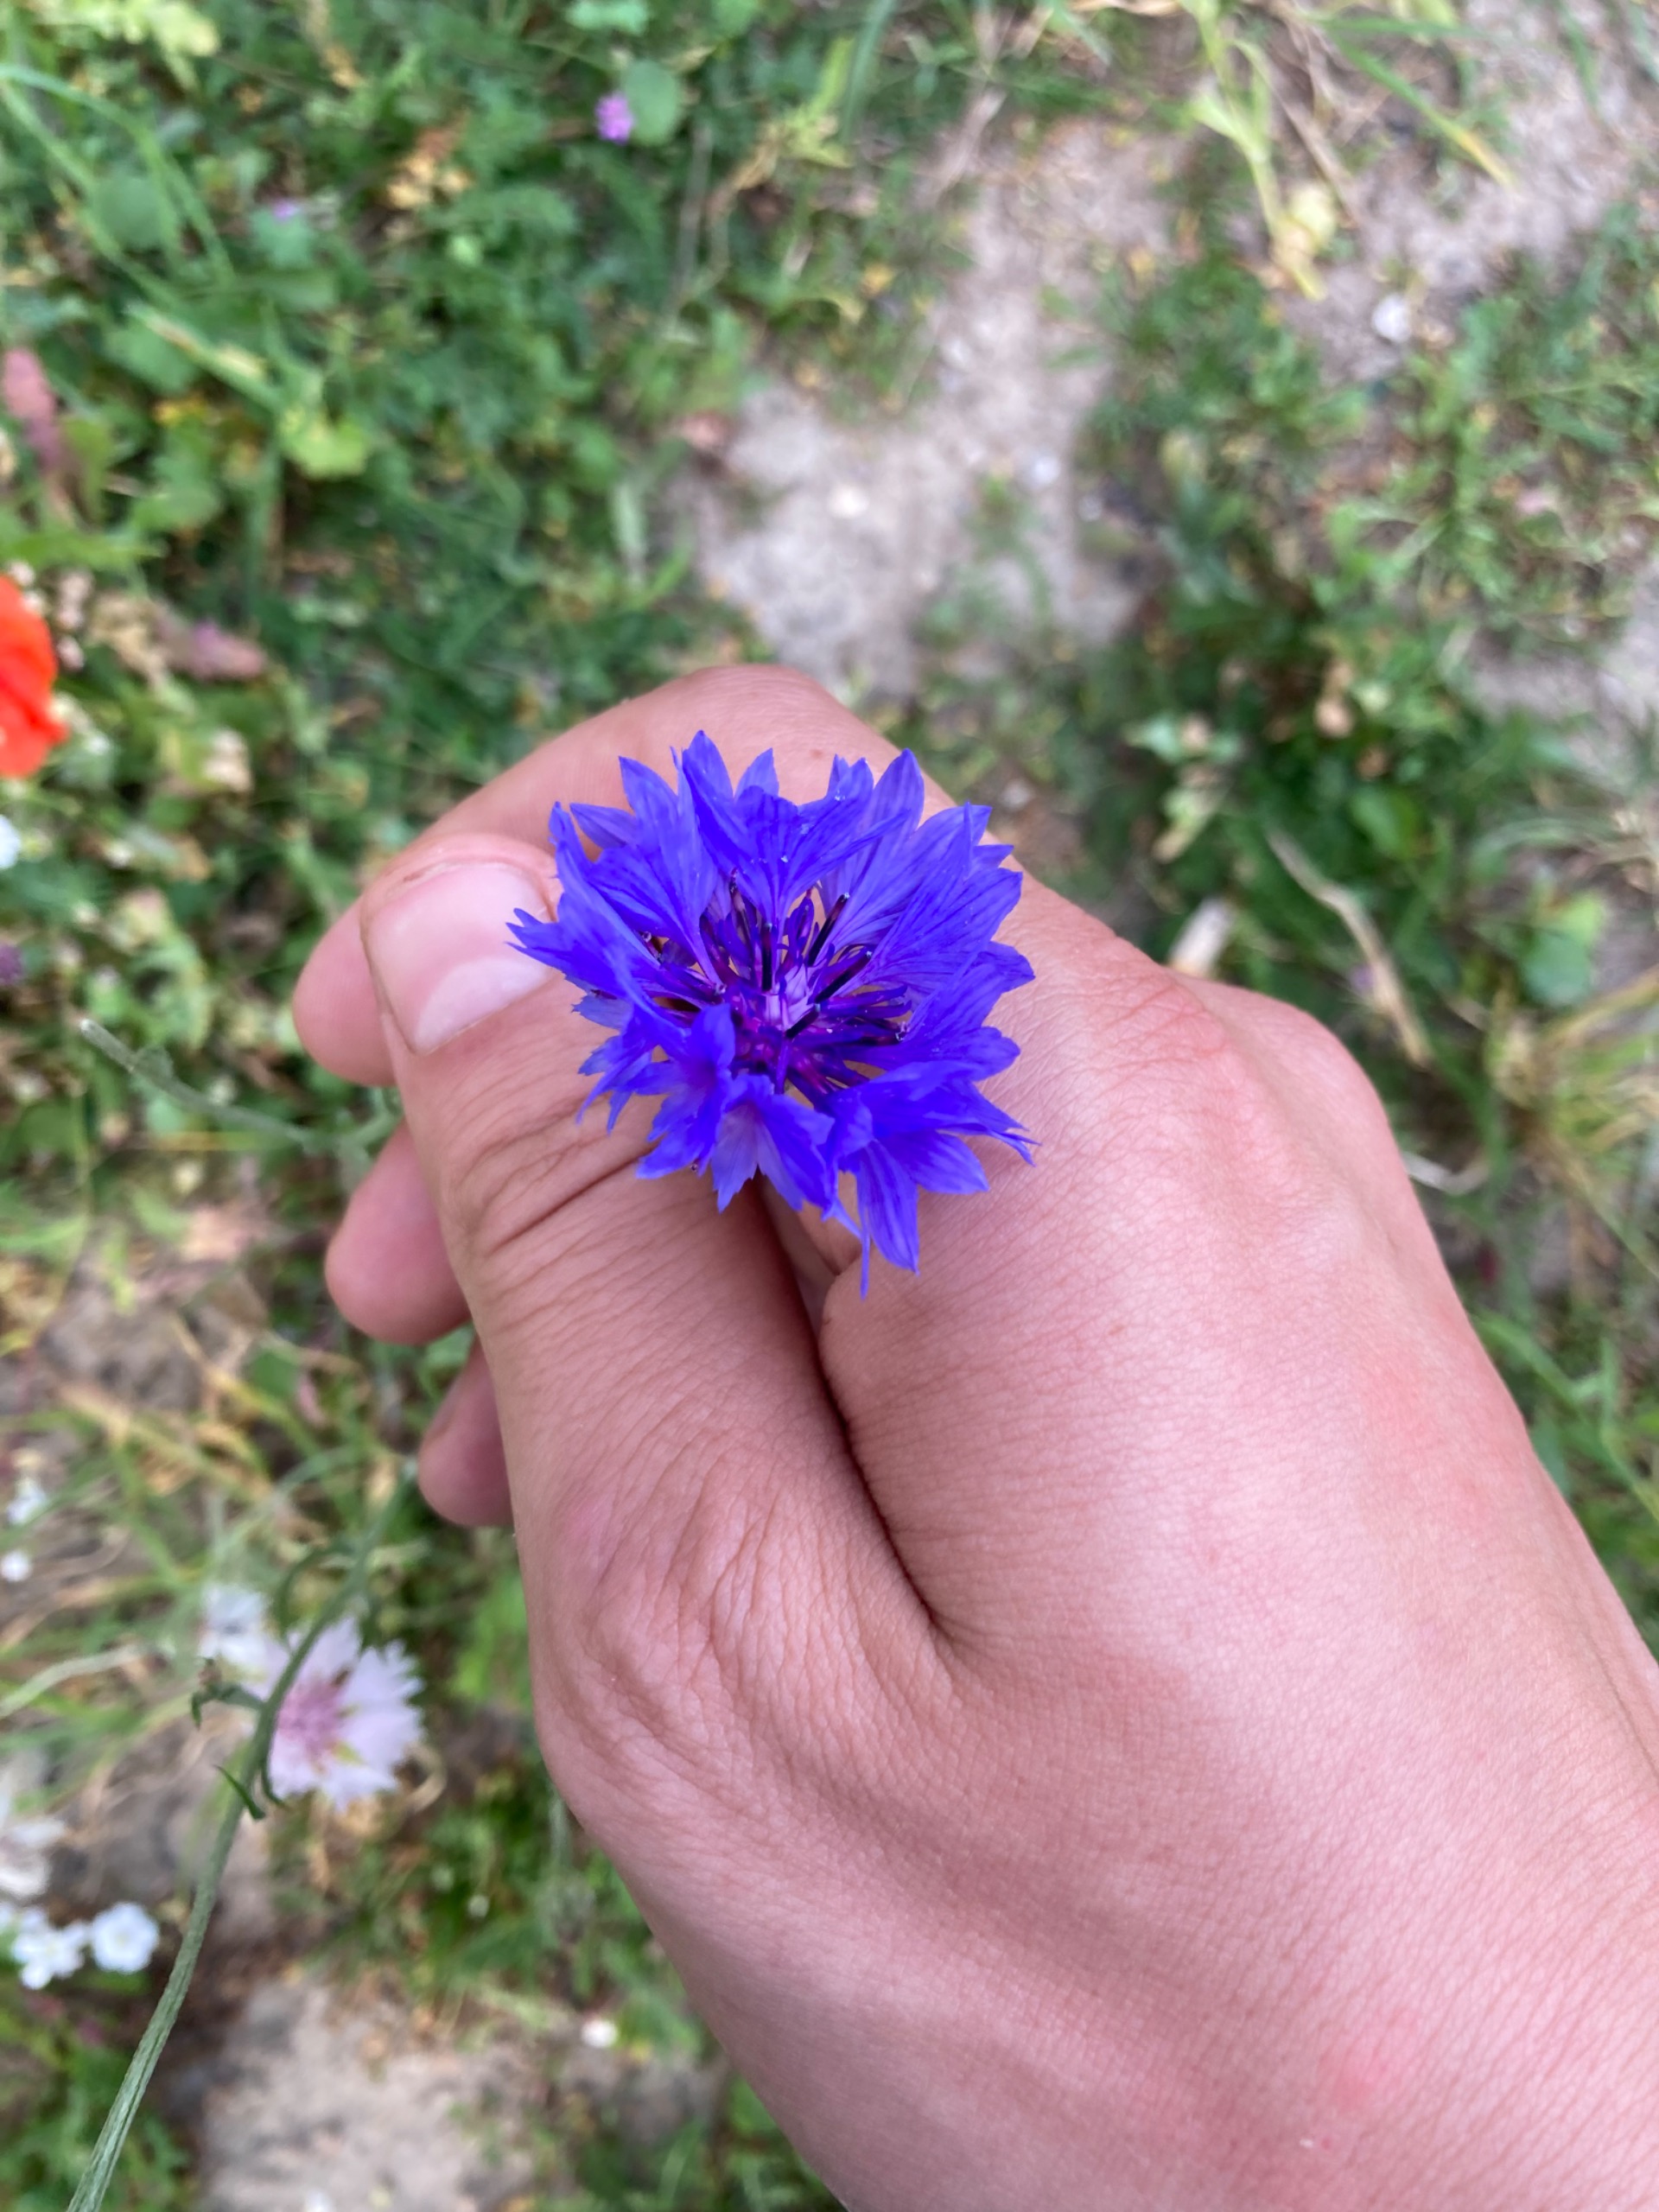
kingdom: Plantae
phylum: Tracheophyta
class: Magnoliopsida
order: Asterales
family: Asteraceae
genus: Centaurea
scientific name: Centaurea cyanus
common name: Kornblomst
